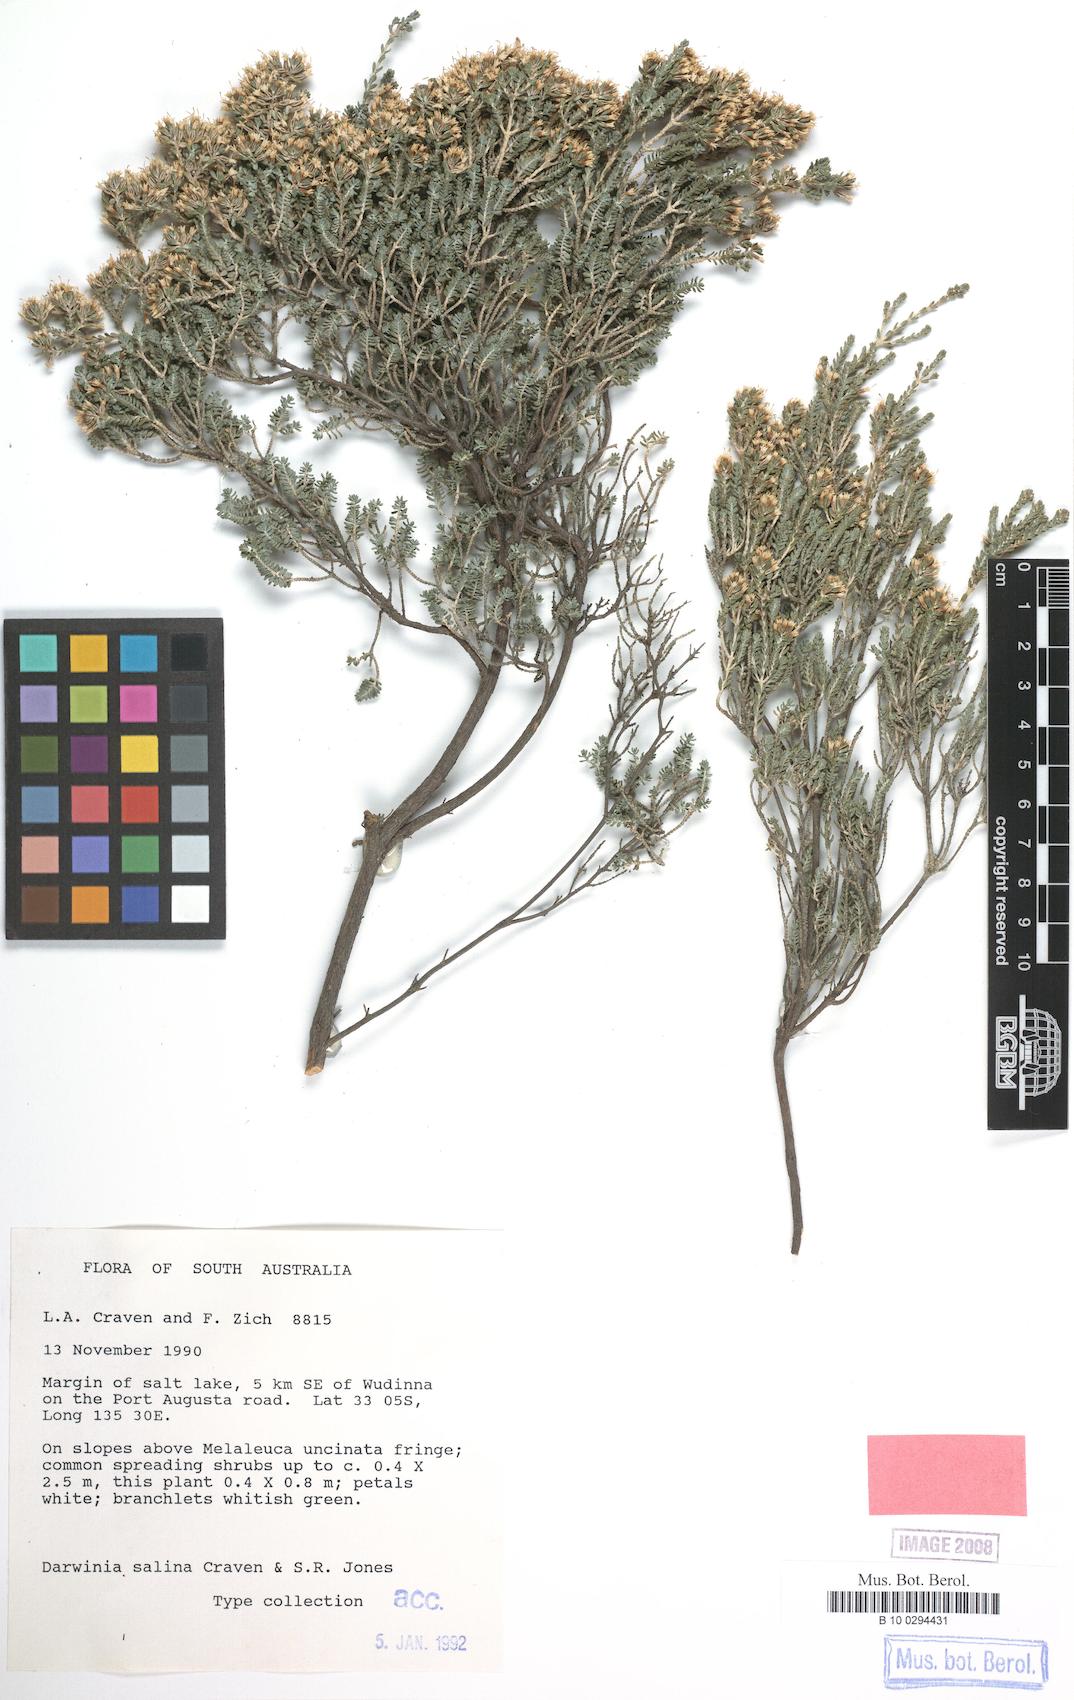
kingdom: Plantae
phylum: Tracheophyta
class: Magnoliopsida
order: Myrtales
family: Myrtaceae
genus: Darwinia
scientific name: Darwinia salina
